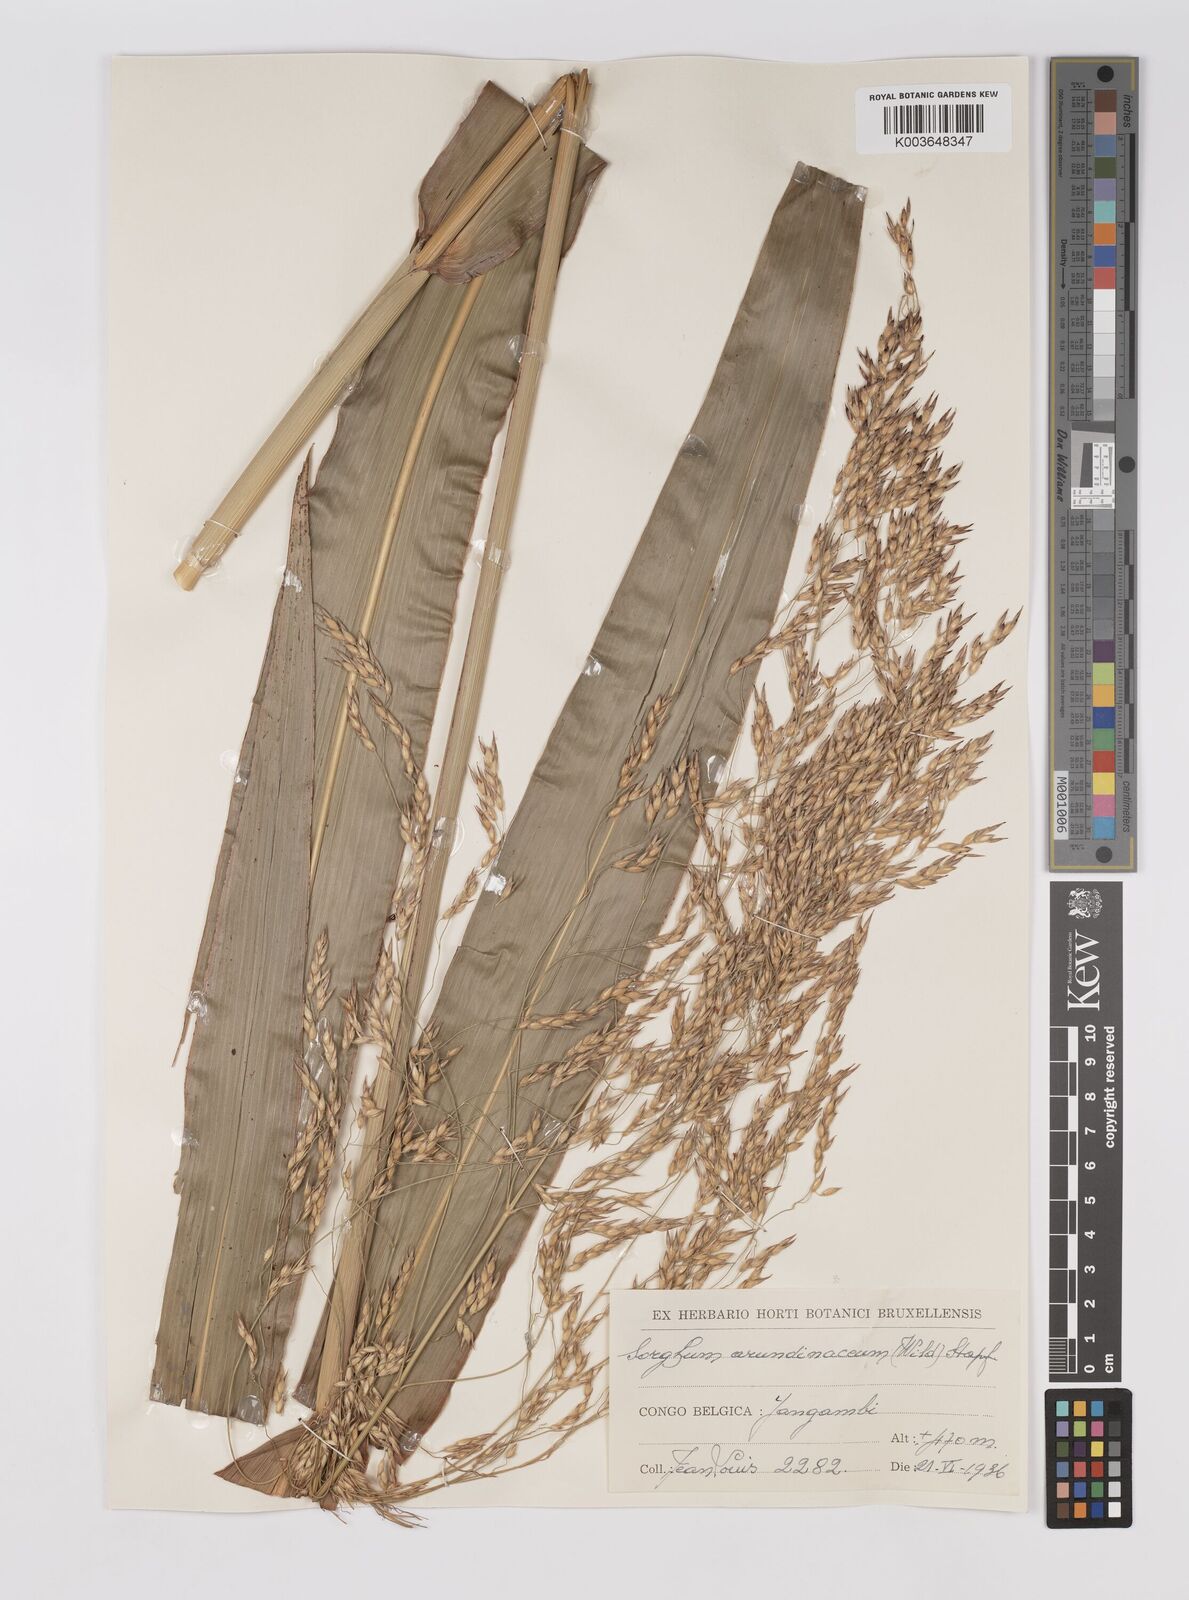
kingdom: Plantae
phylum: Tracheophyta
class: Liliopsida
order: Poales
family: Poaceae
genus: Sorghum
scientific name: Sorghum arundinaceum
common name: Sorghum
